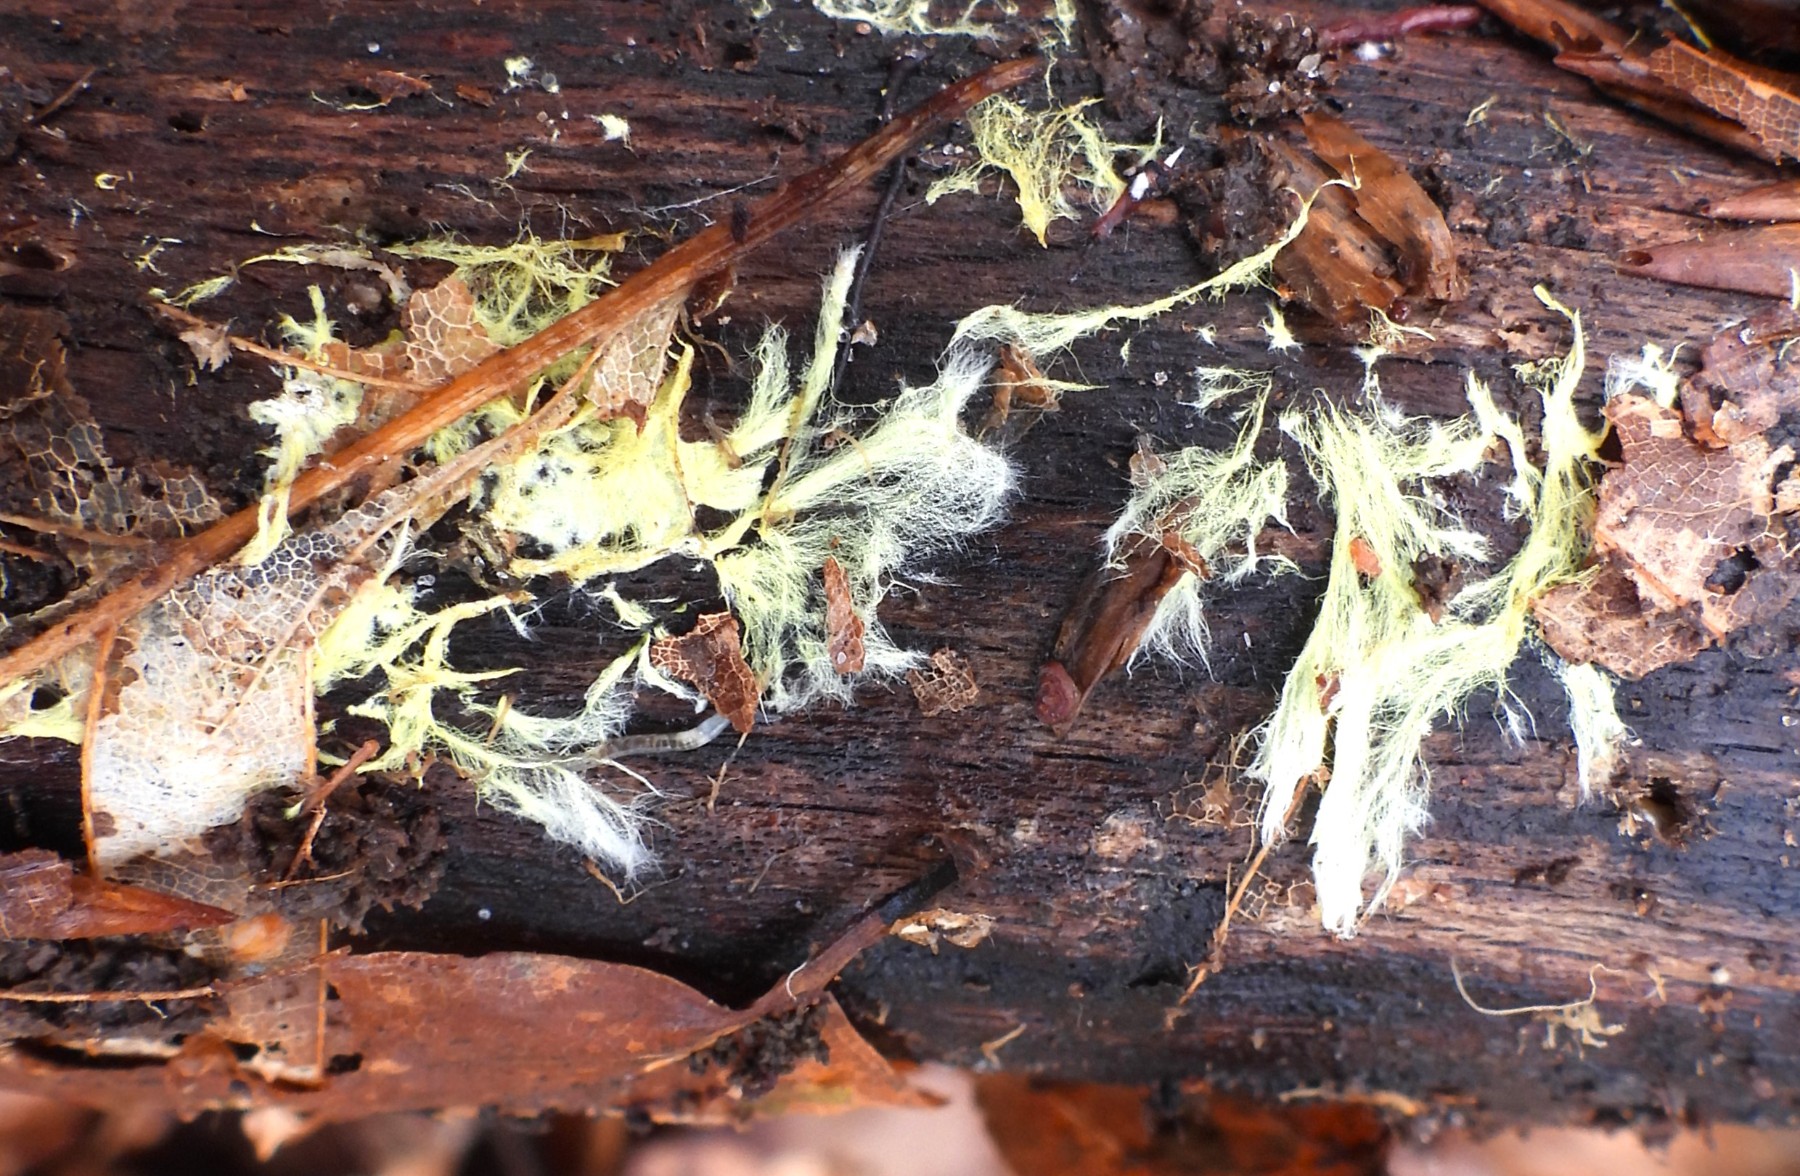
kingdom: Fungi
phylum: Basidiomycota
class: Agaricomycetes
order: Russulales
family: Xenasmataceae
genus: Xenasmatella
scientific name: Xenasmatella vaga
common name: svovl-strenghinde
